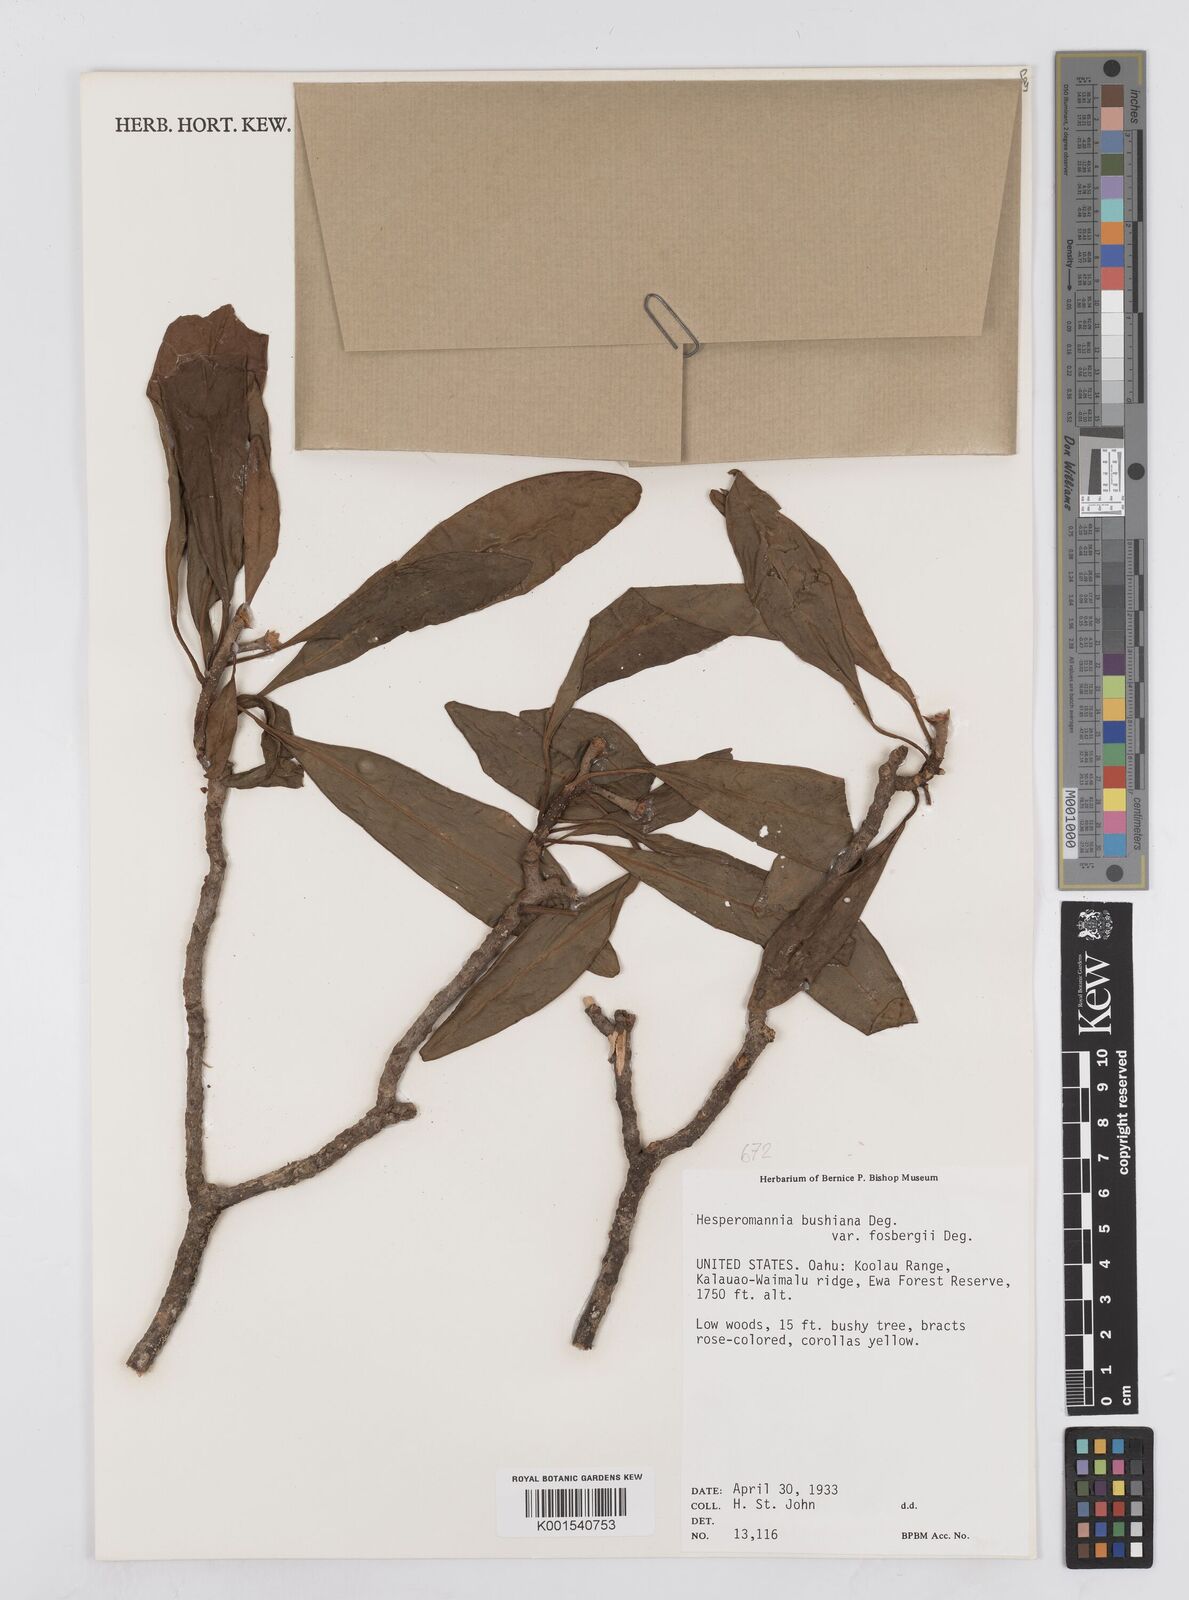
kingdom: Plantae
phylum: Tracheophyta
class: Magnoliopsida
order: Asterales
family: Asteraceae
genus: Hesperomannia
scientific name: Hesperomannia arborescens
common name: Lanai hesperomannia
